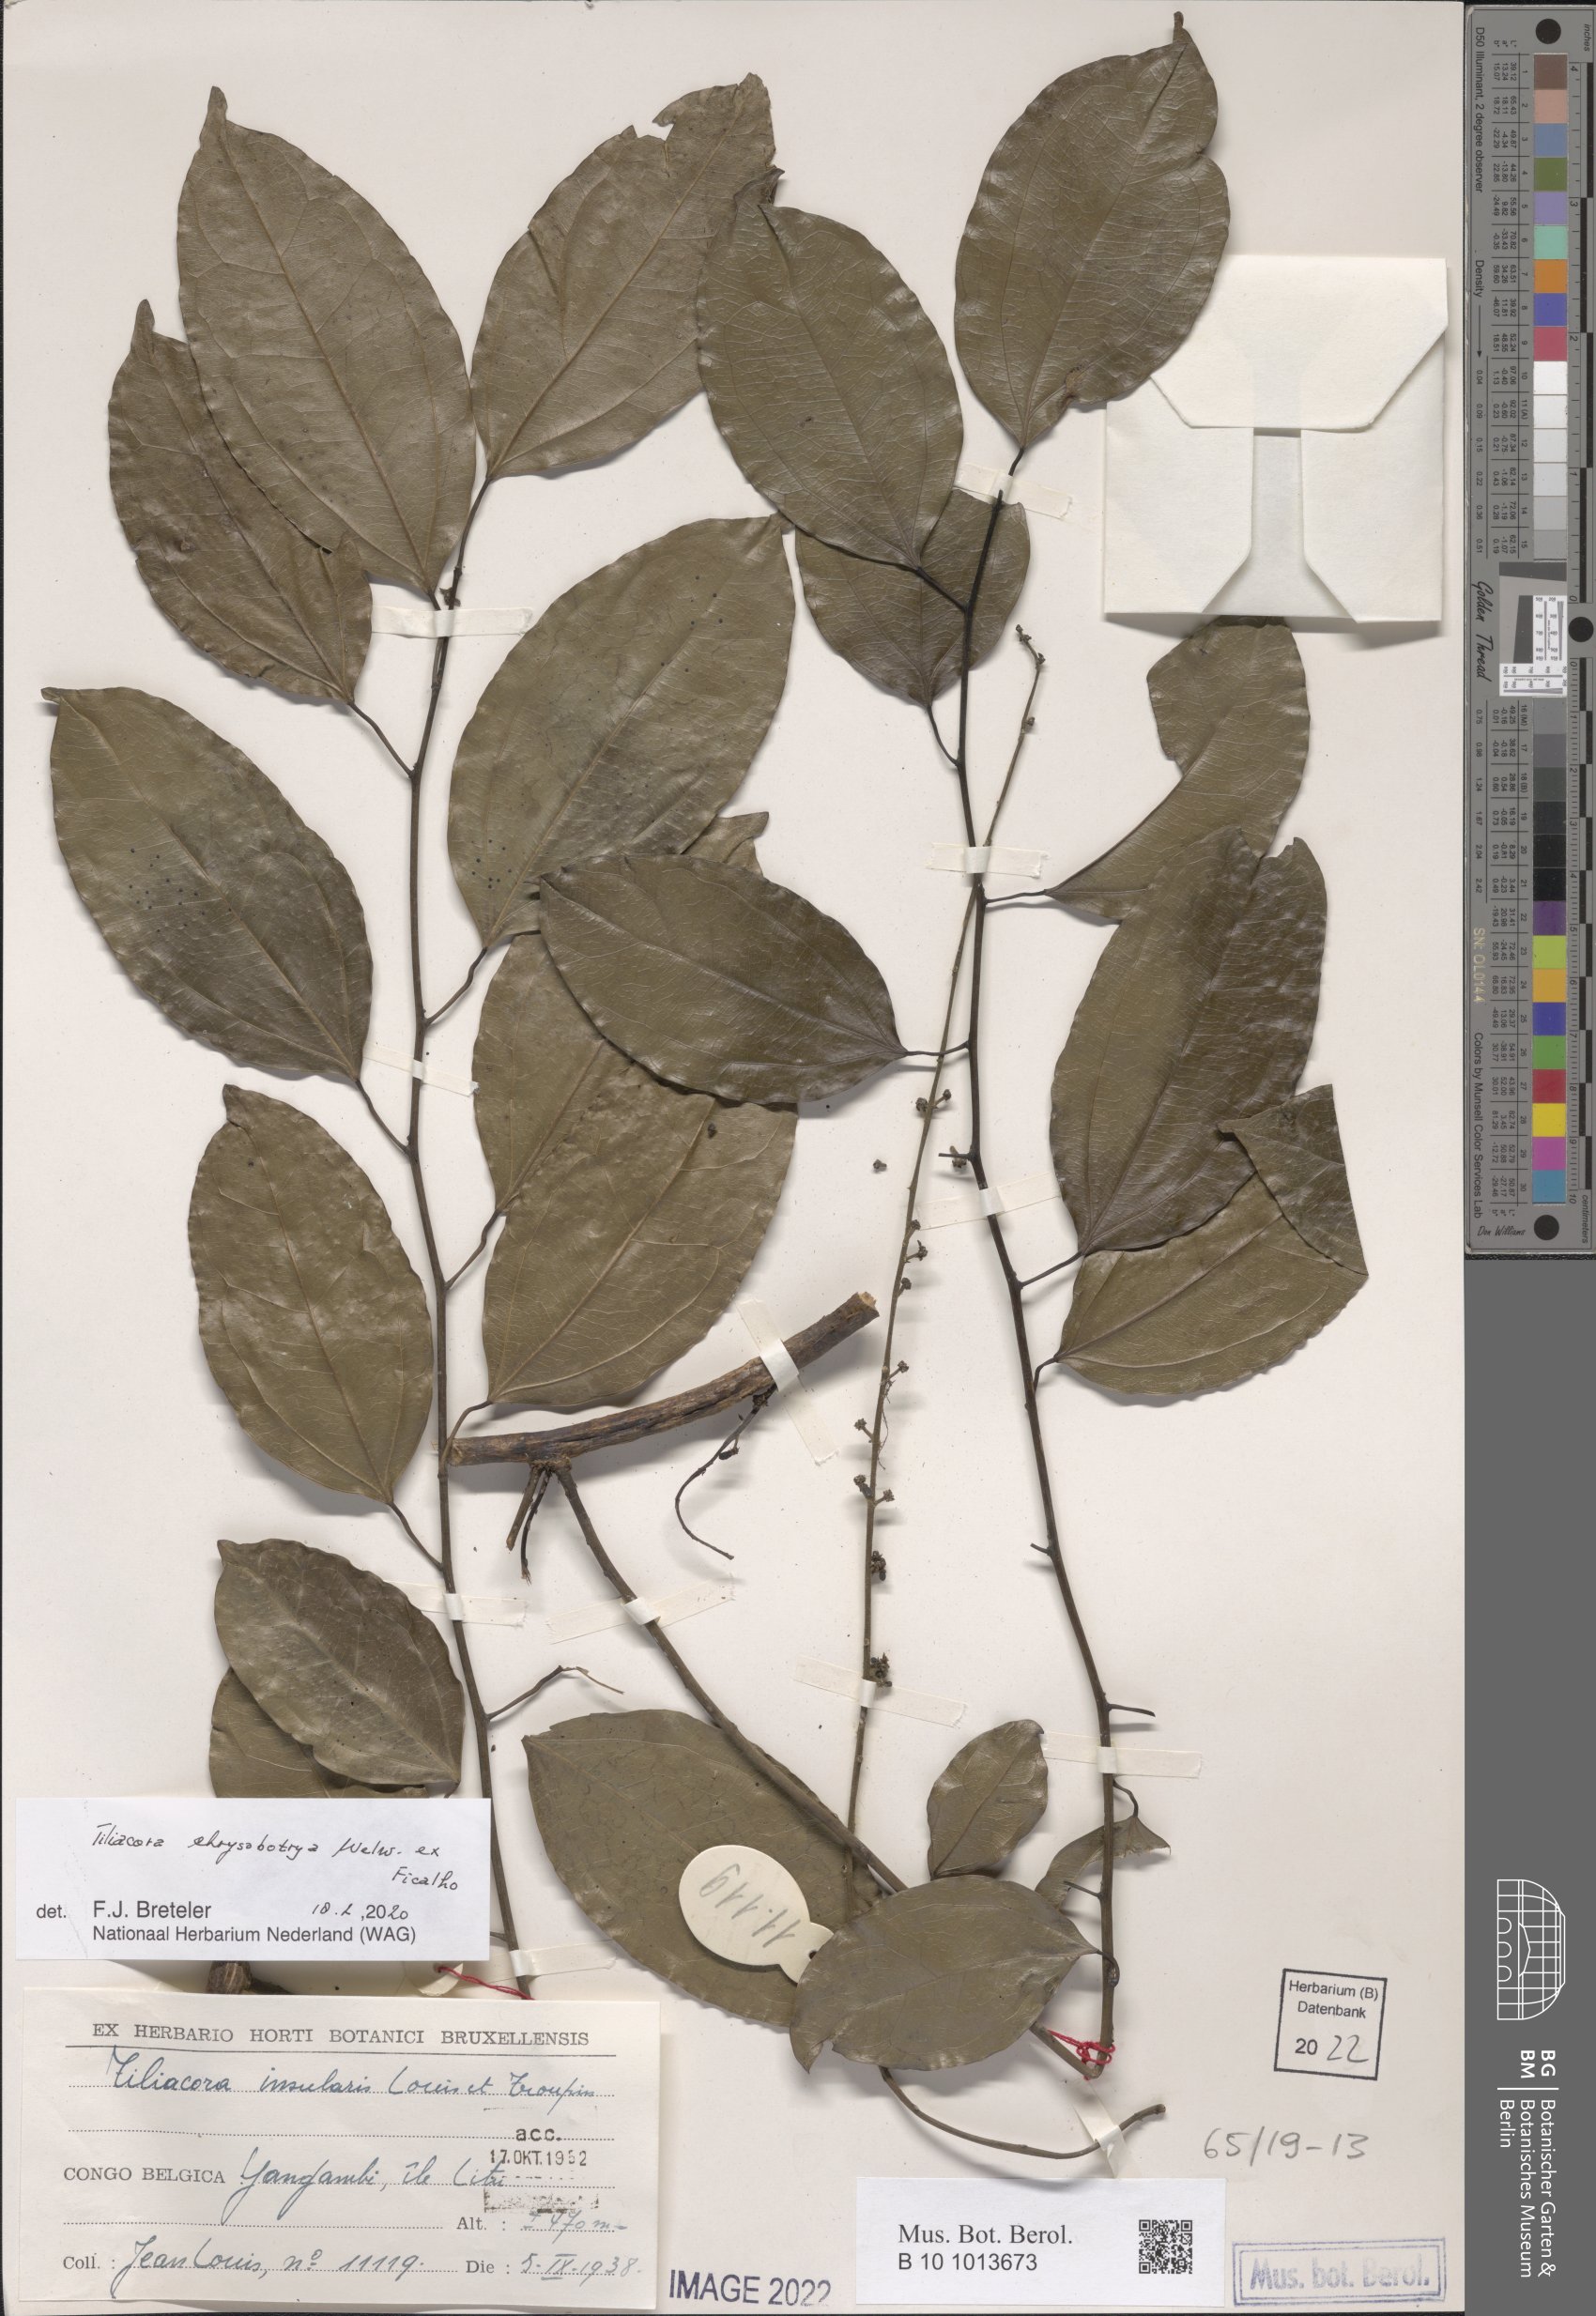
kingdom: Plantae
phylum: Tracheophyta
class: Magnoliopsida
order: Ranunculales
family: Menispermaceae
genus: Tiliacora
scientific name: Tiliacora chrysobotrya
